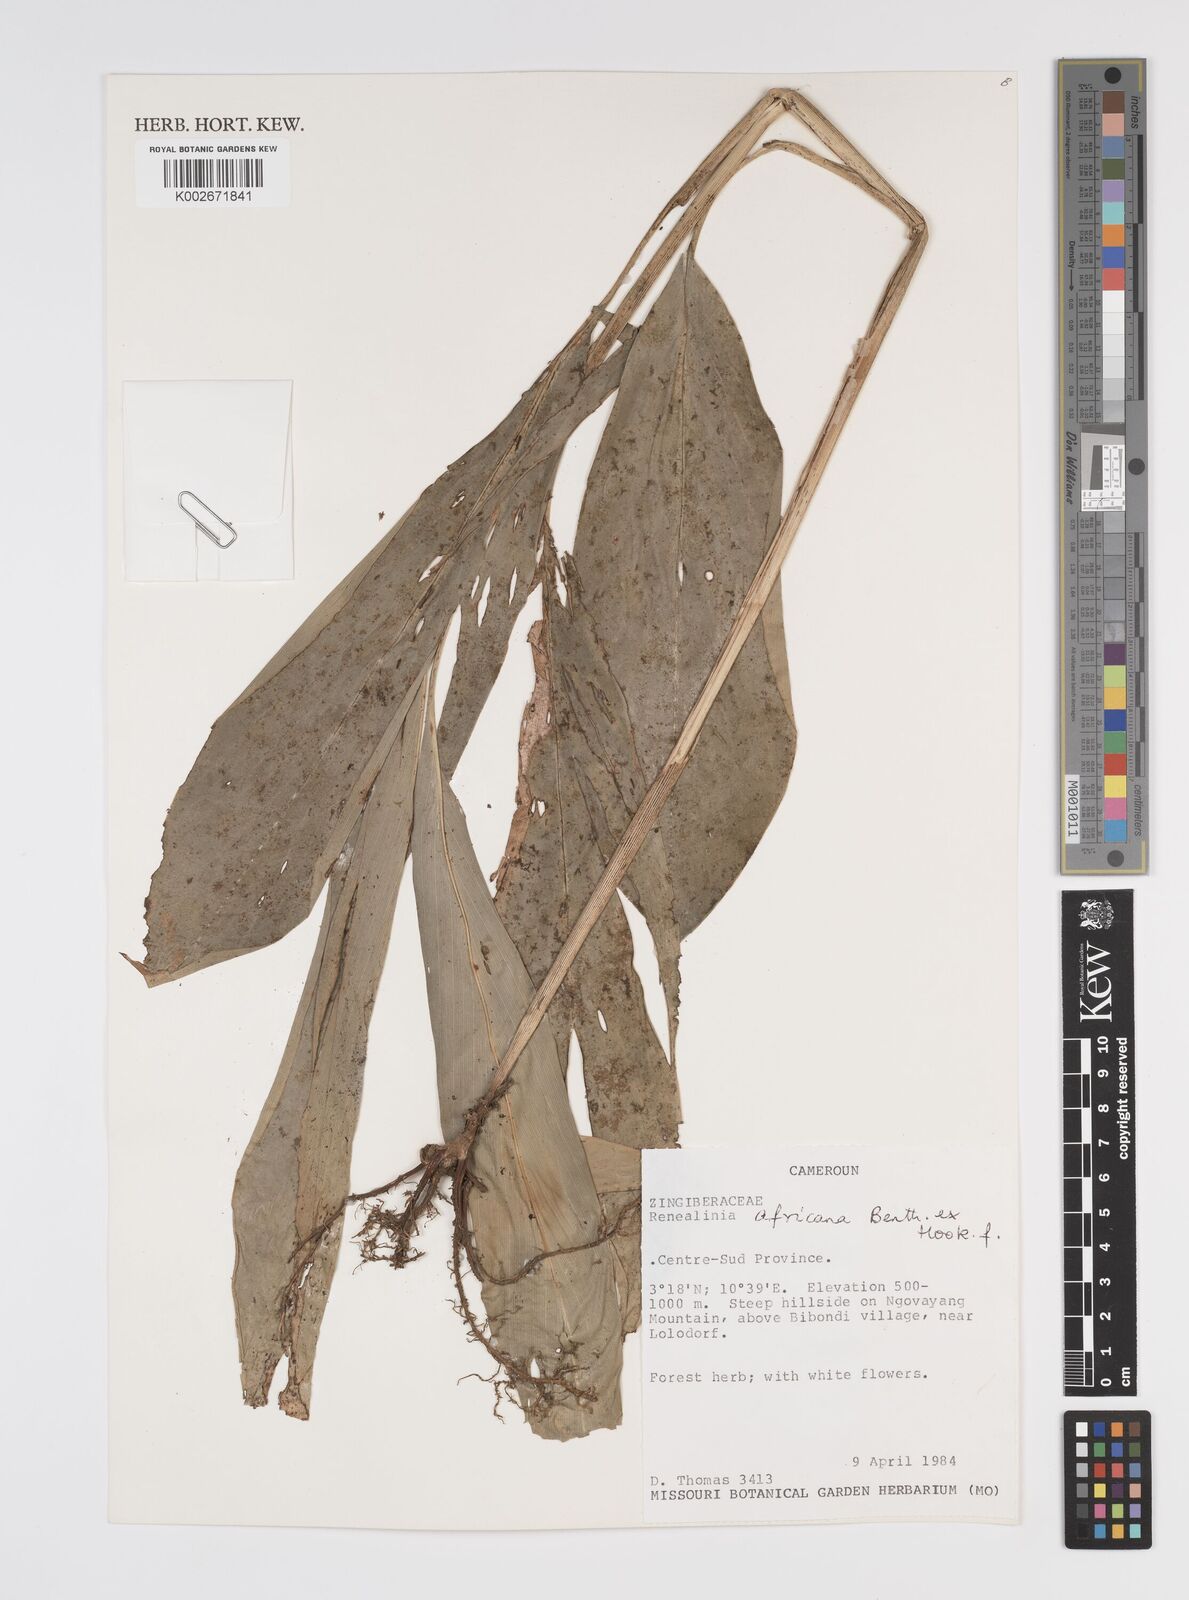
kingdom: Plantae
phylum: Tracheophyta
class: Liliopsida
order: Zingiberales
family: Zingiberaceae
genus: Renealmia
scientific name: Renealmia africana
